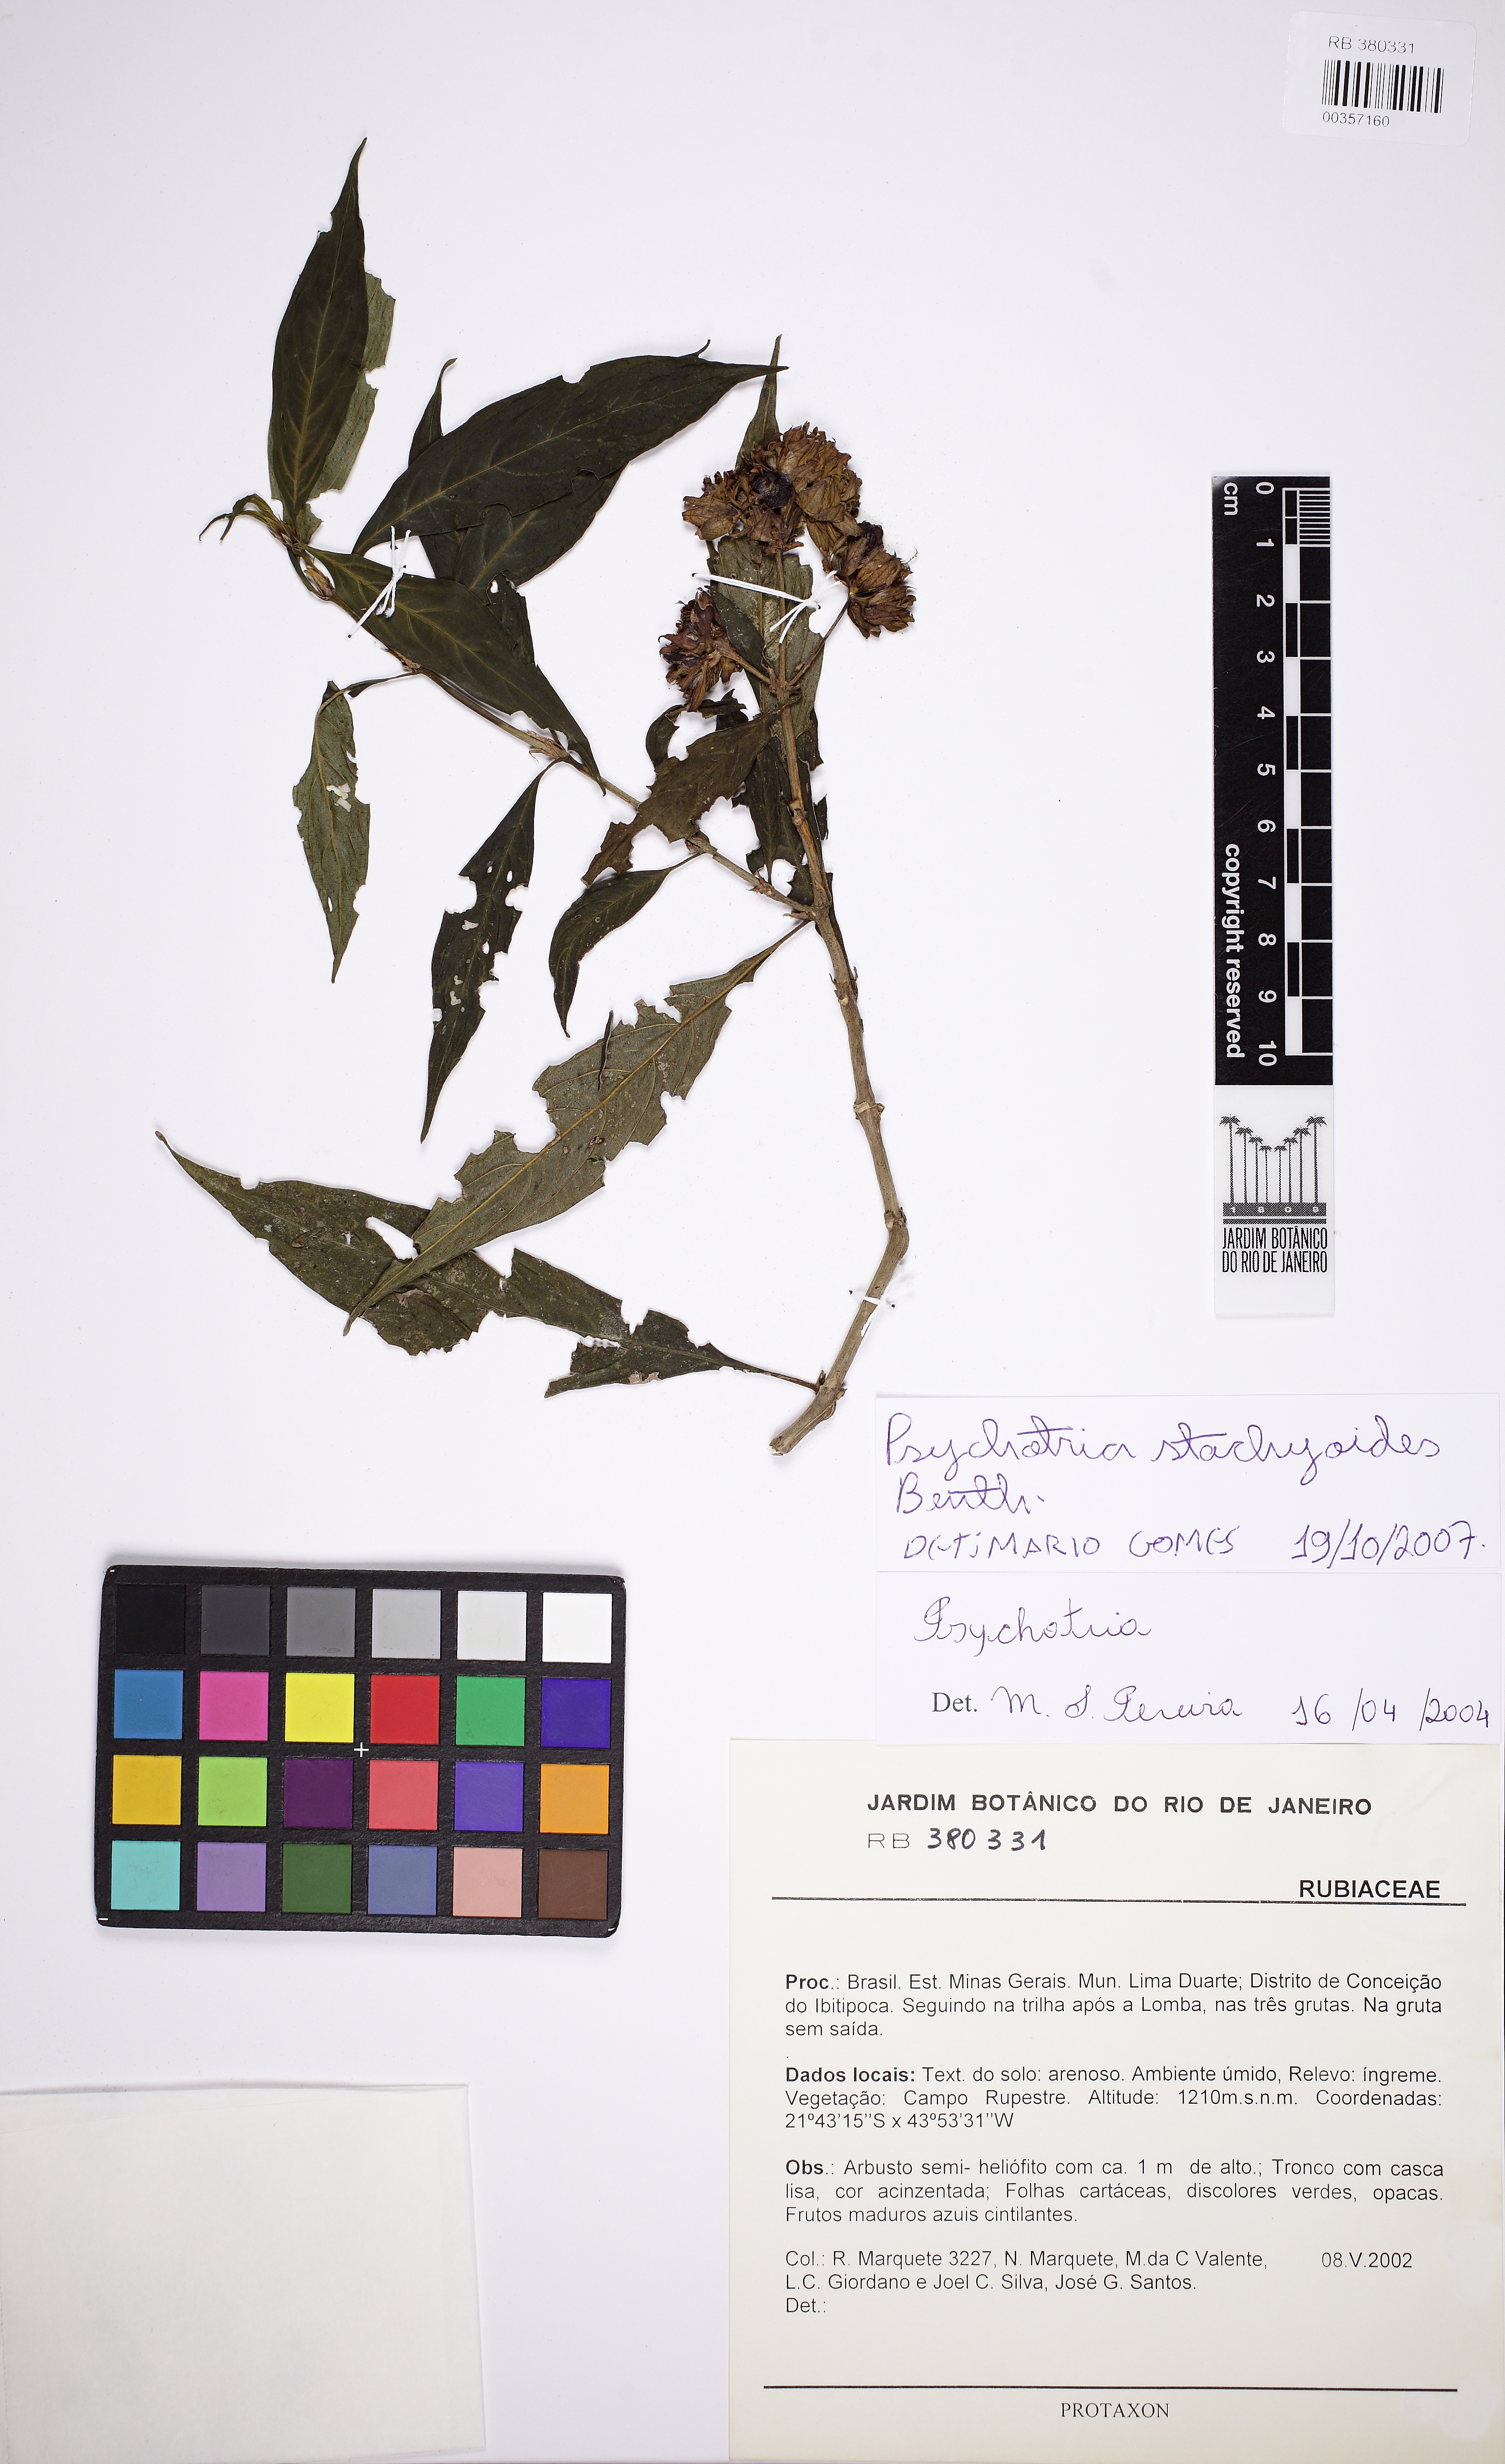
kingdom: Plantae
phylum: Tracheophyta
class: Magnoliopsida
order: Gentianales
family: Rubiaceae
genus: Psychotria
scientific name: Psychotria stachyoides
